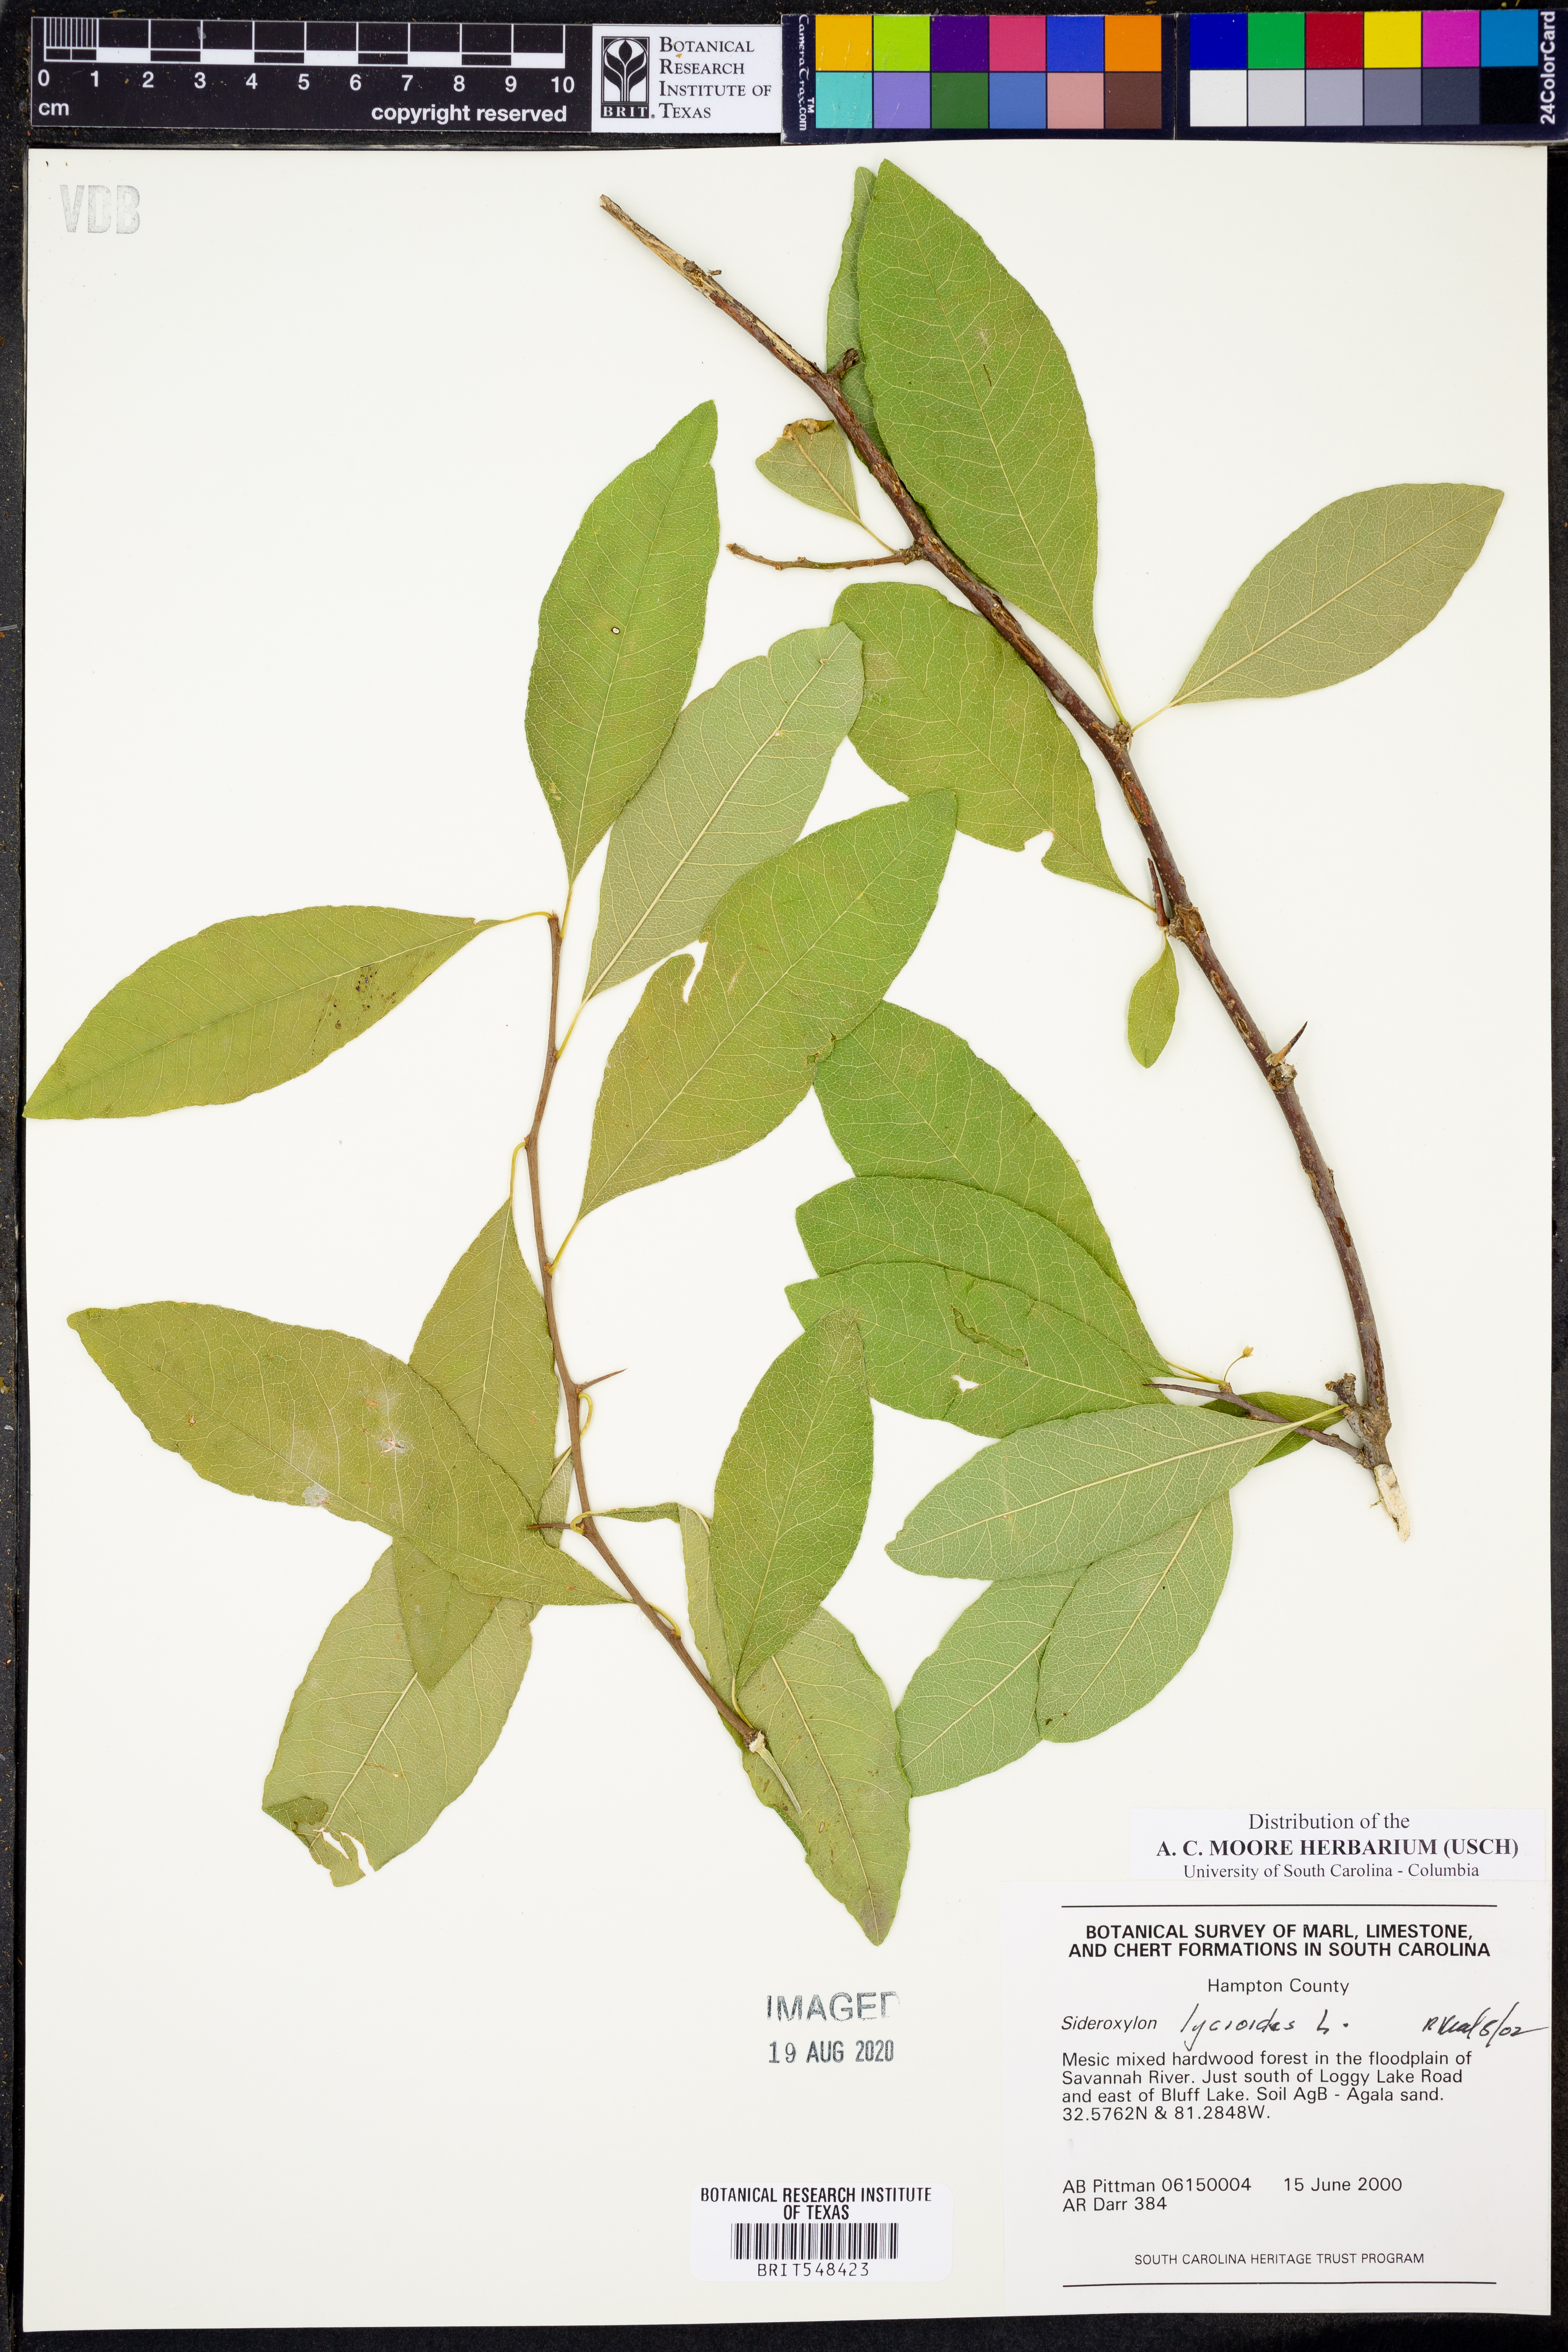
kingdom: Plantae
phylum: Tracheophyta
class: Magnoliopsida
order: Ericales
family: Sapotaceae
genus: Sideroxylon
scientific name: Sideroxylon lycioides
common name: Buckthorn bumelia
